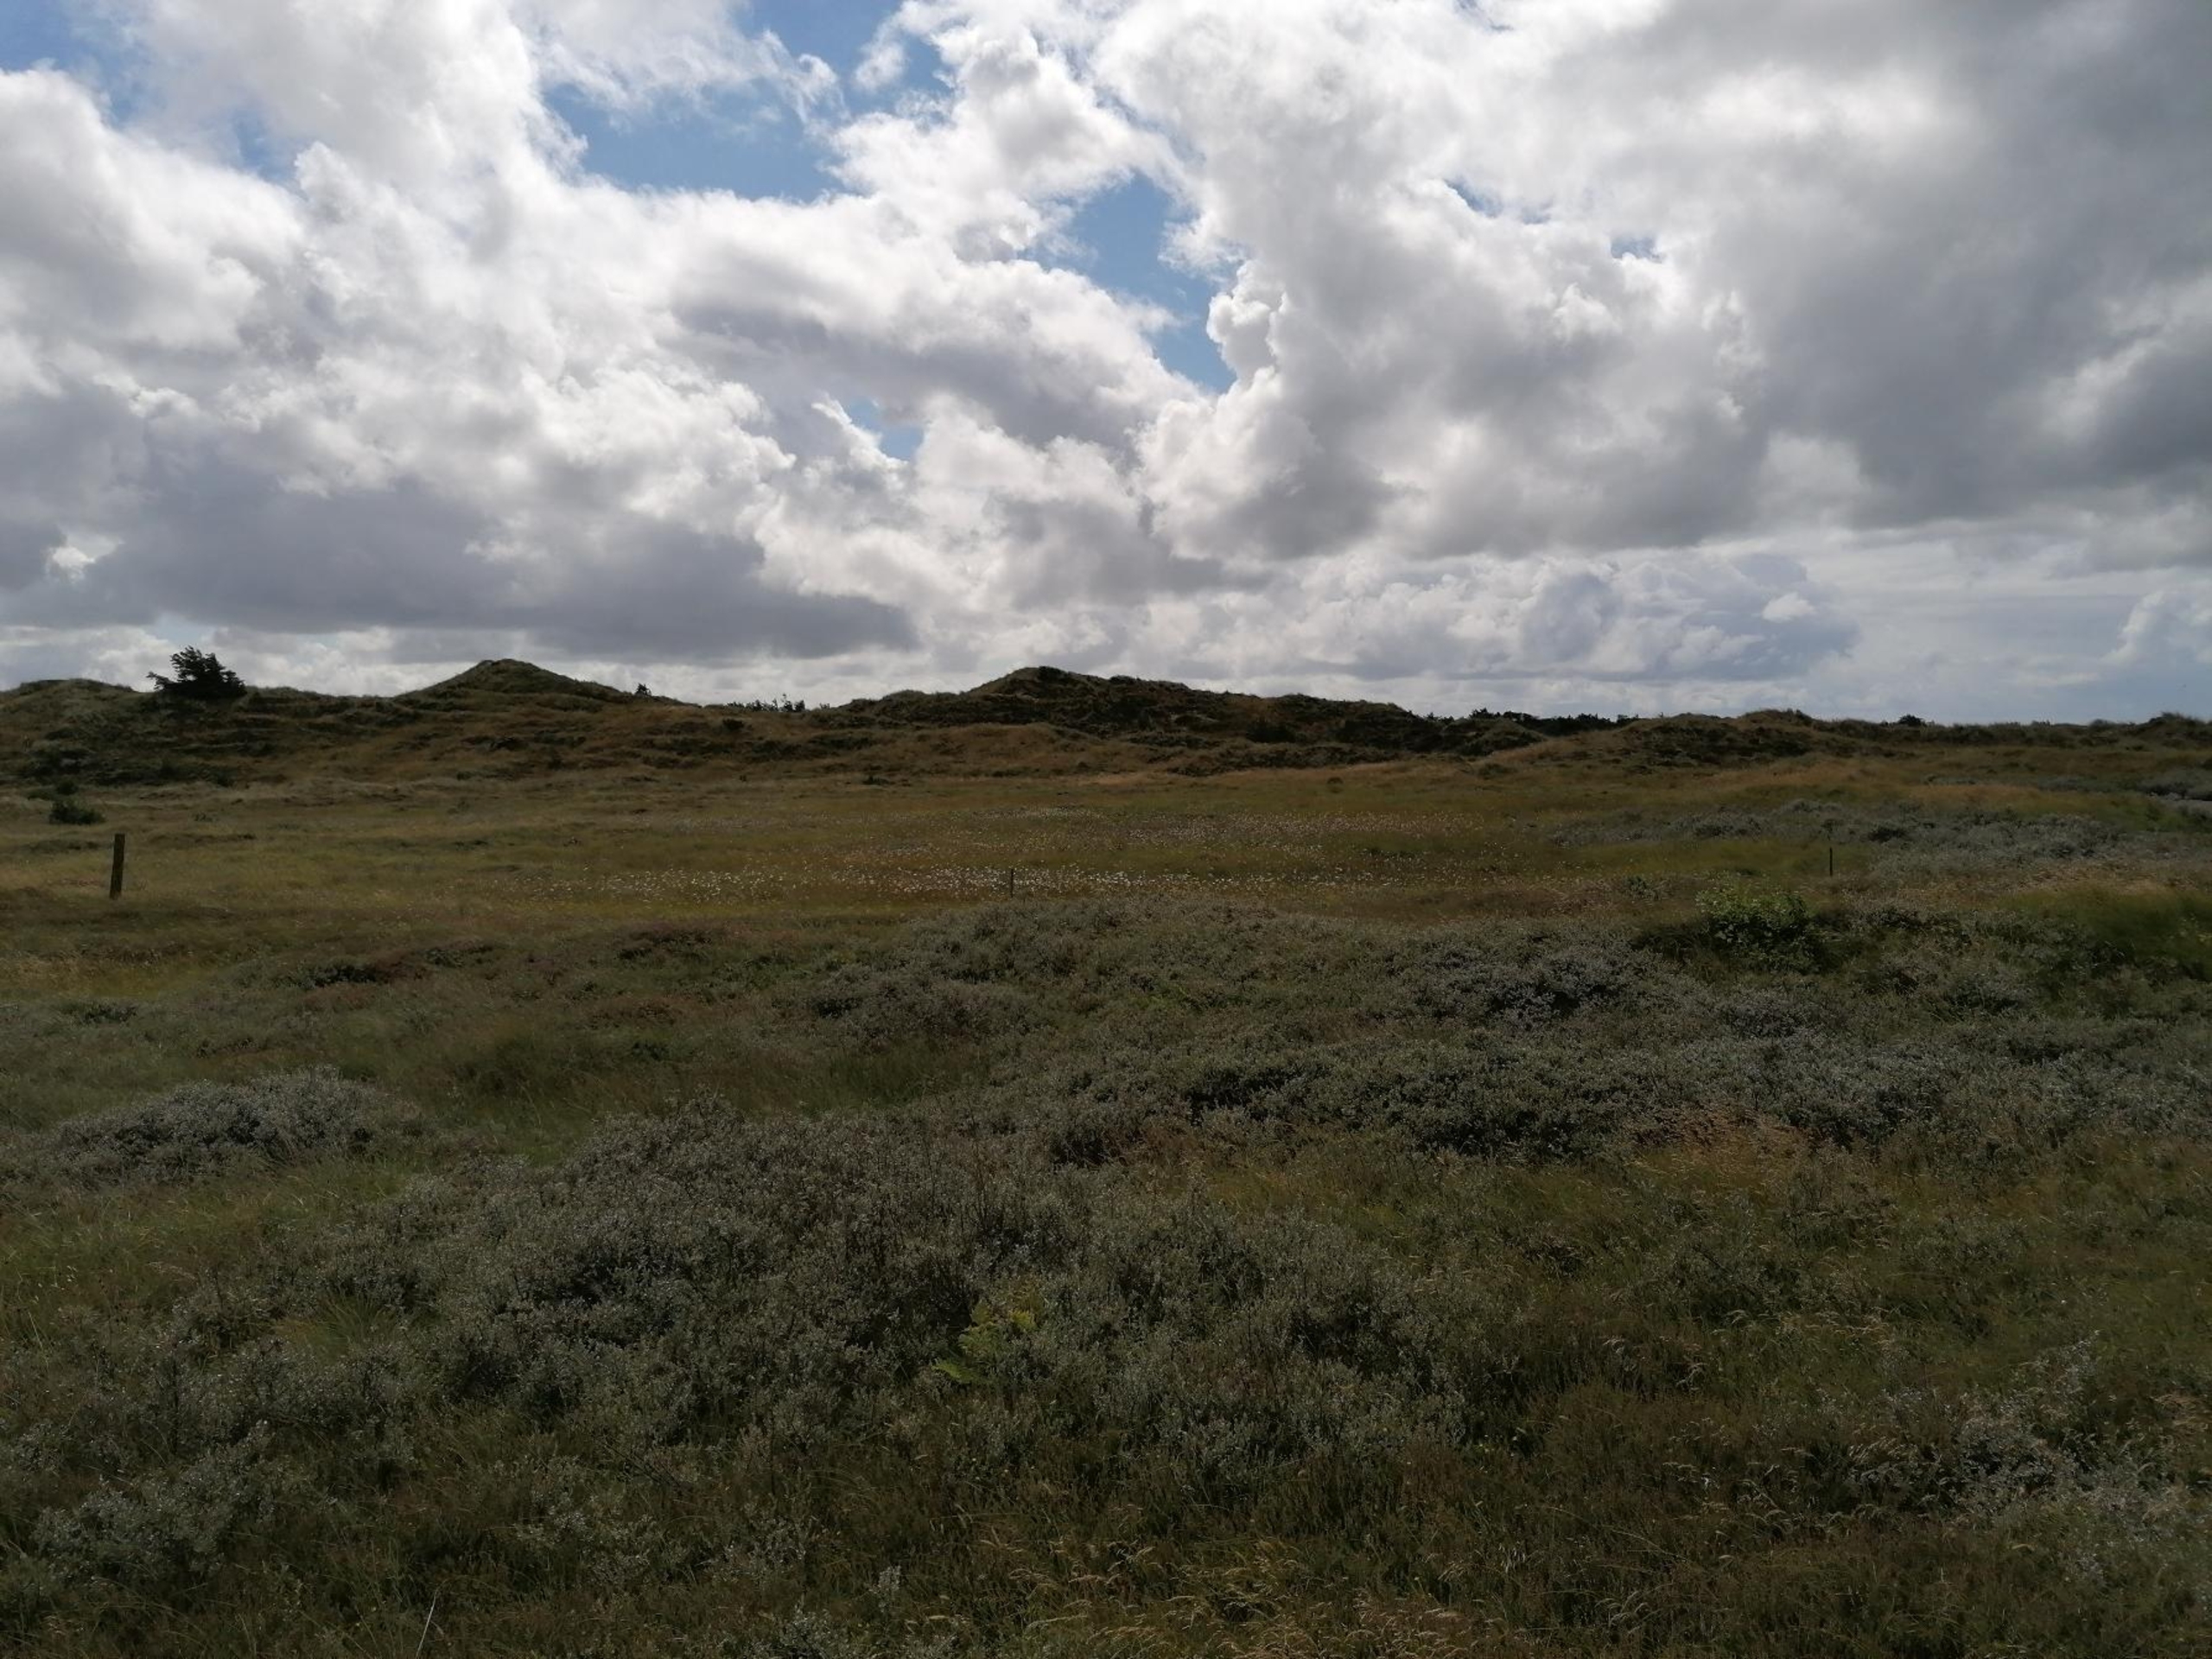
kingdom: Plantae
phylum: Tracheophyta
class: Liliopsida
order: Poales
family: Cyperaceae
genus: Eriophorum
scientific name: Eriophorum
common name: Kæruld (Eriophorum-slægten)
